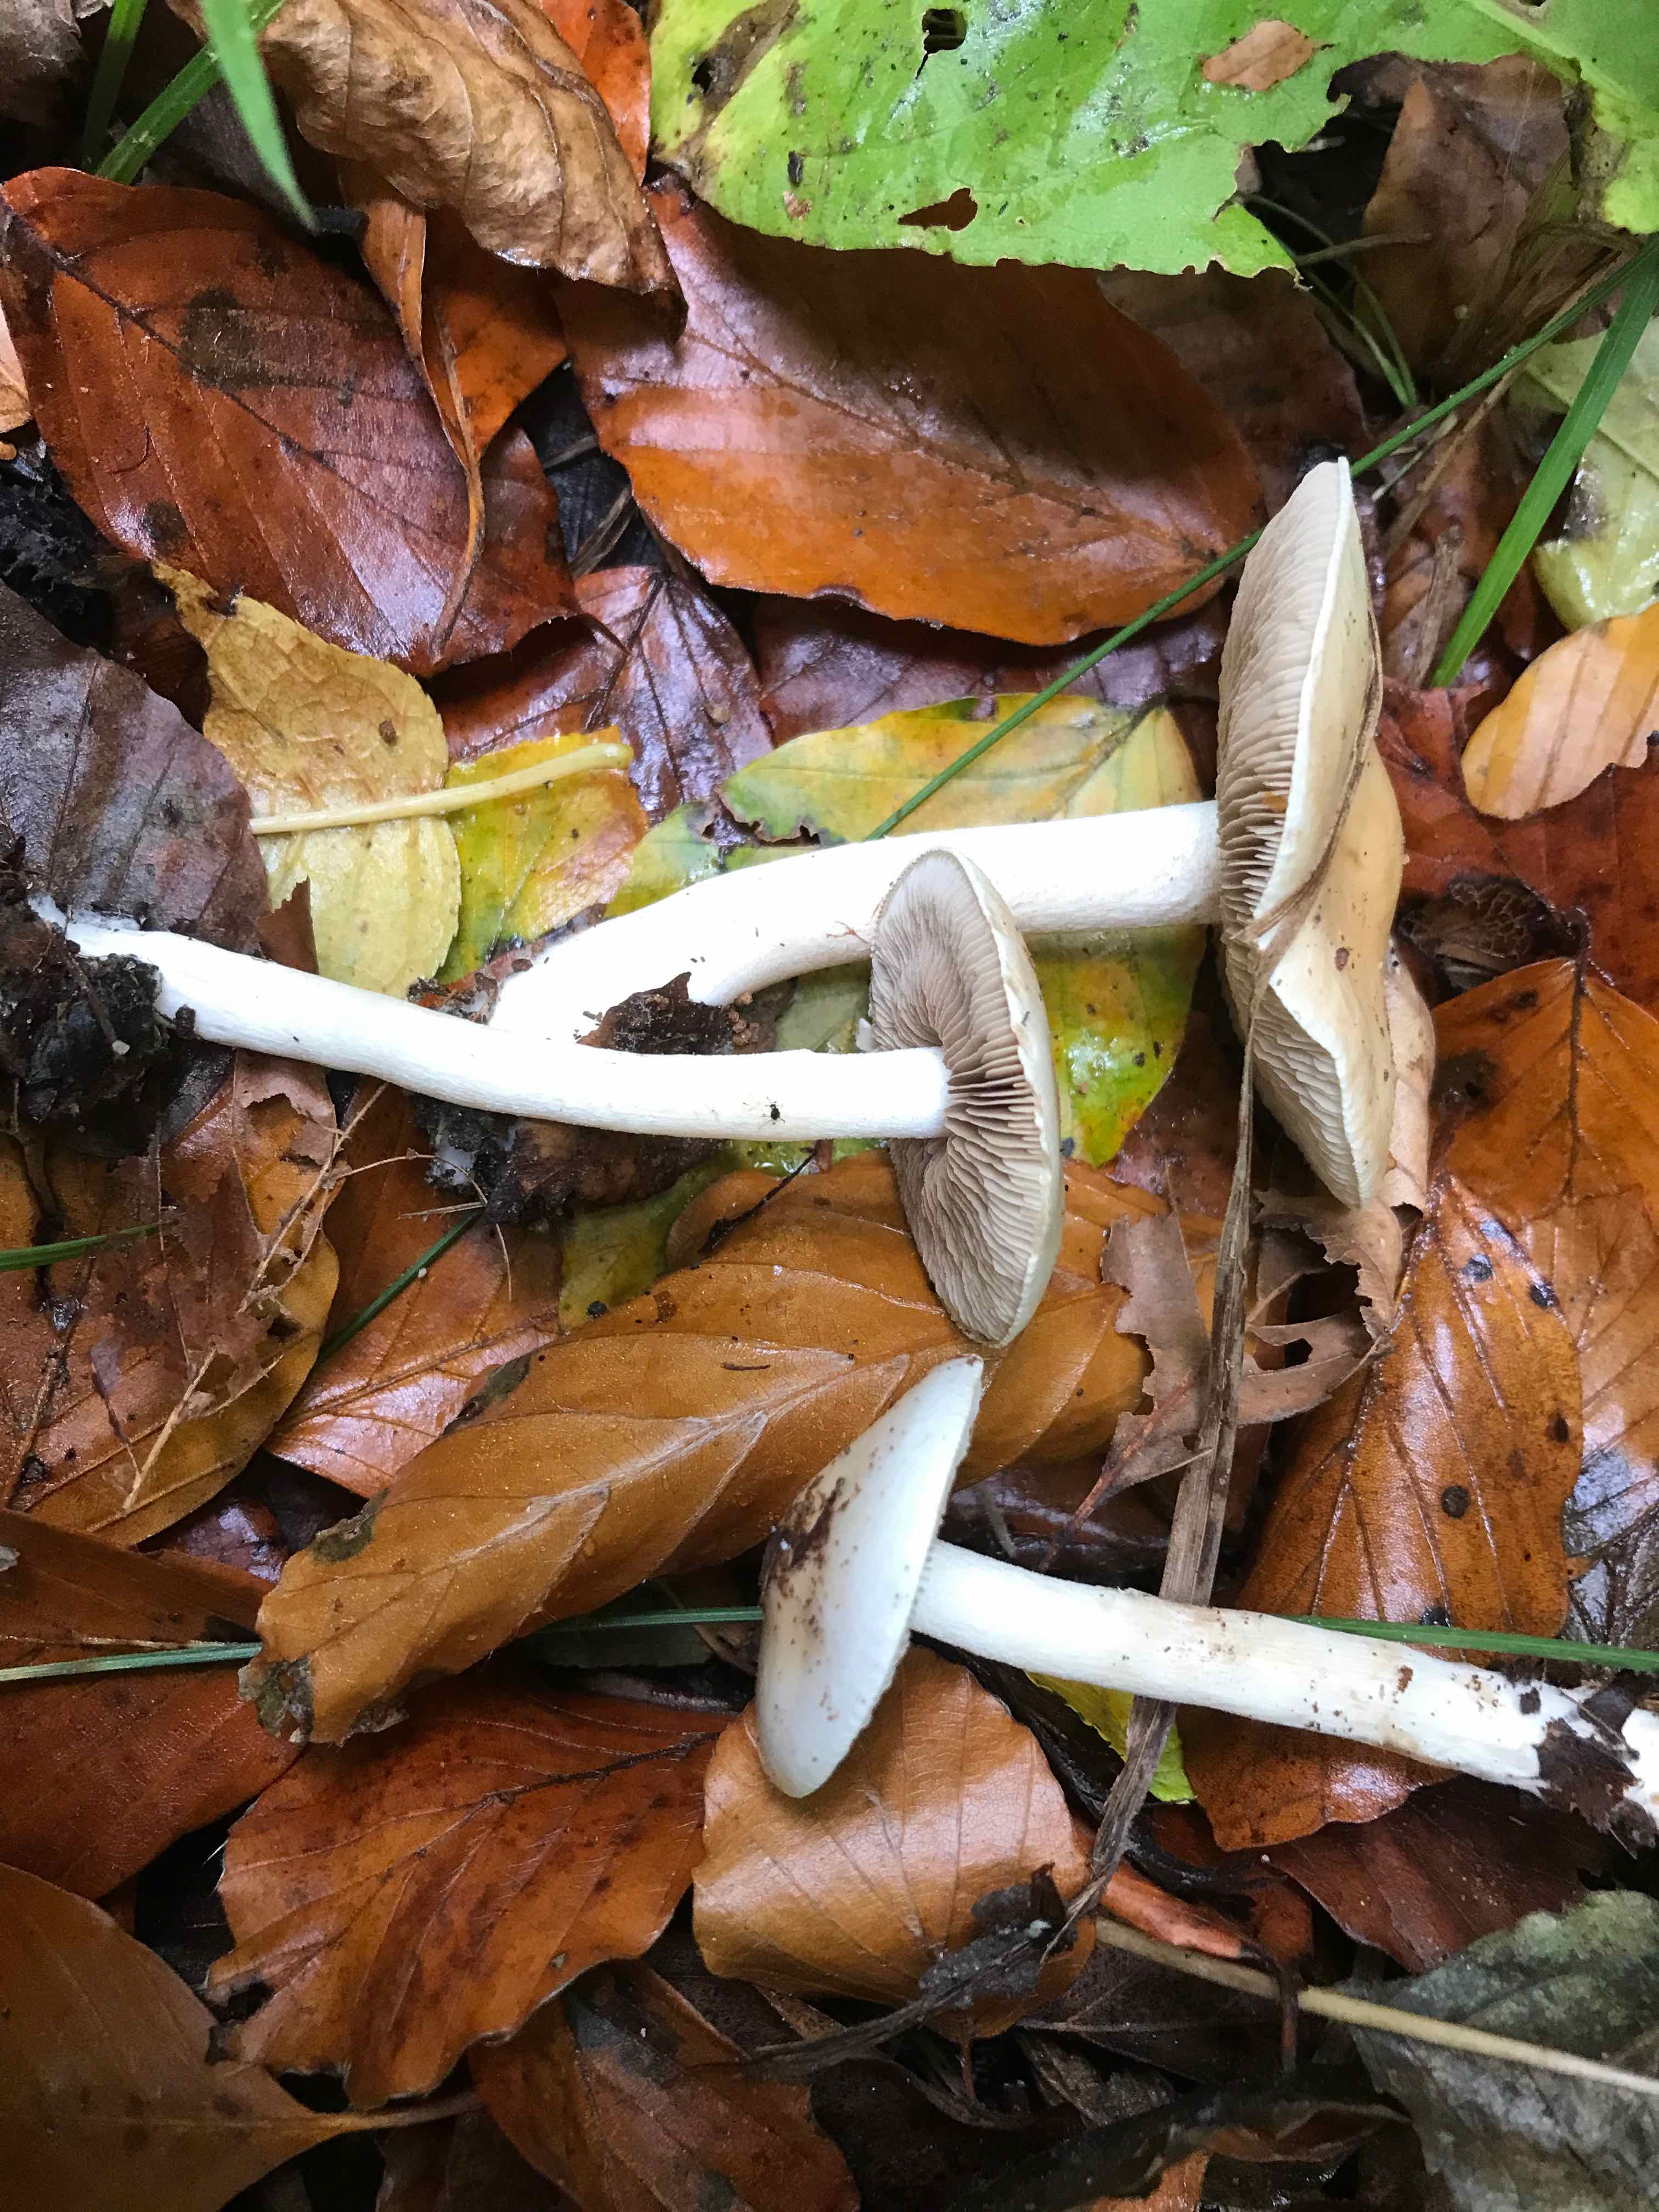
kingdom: Fungi
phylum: Basidiomycota
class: Agaricomycetes
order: Agaricales
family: Hymenogastraceae
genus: Hebeloma
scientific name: Hebeloma
